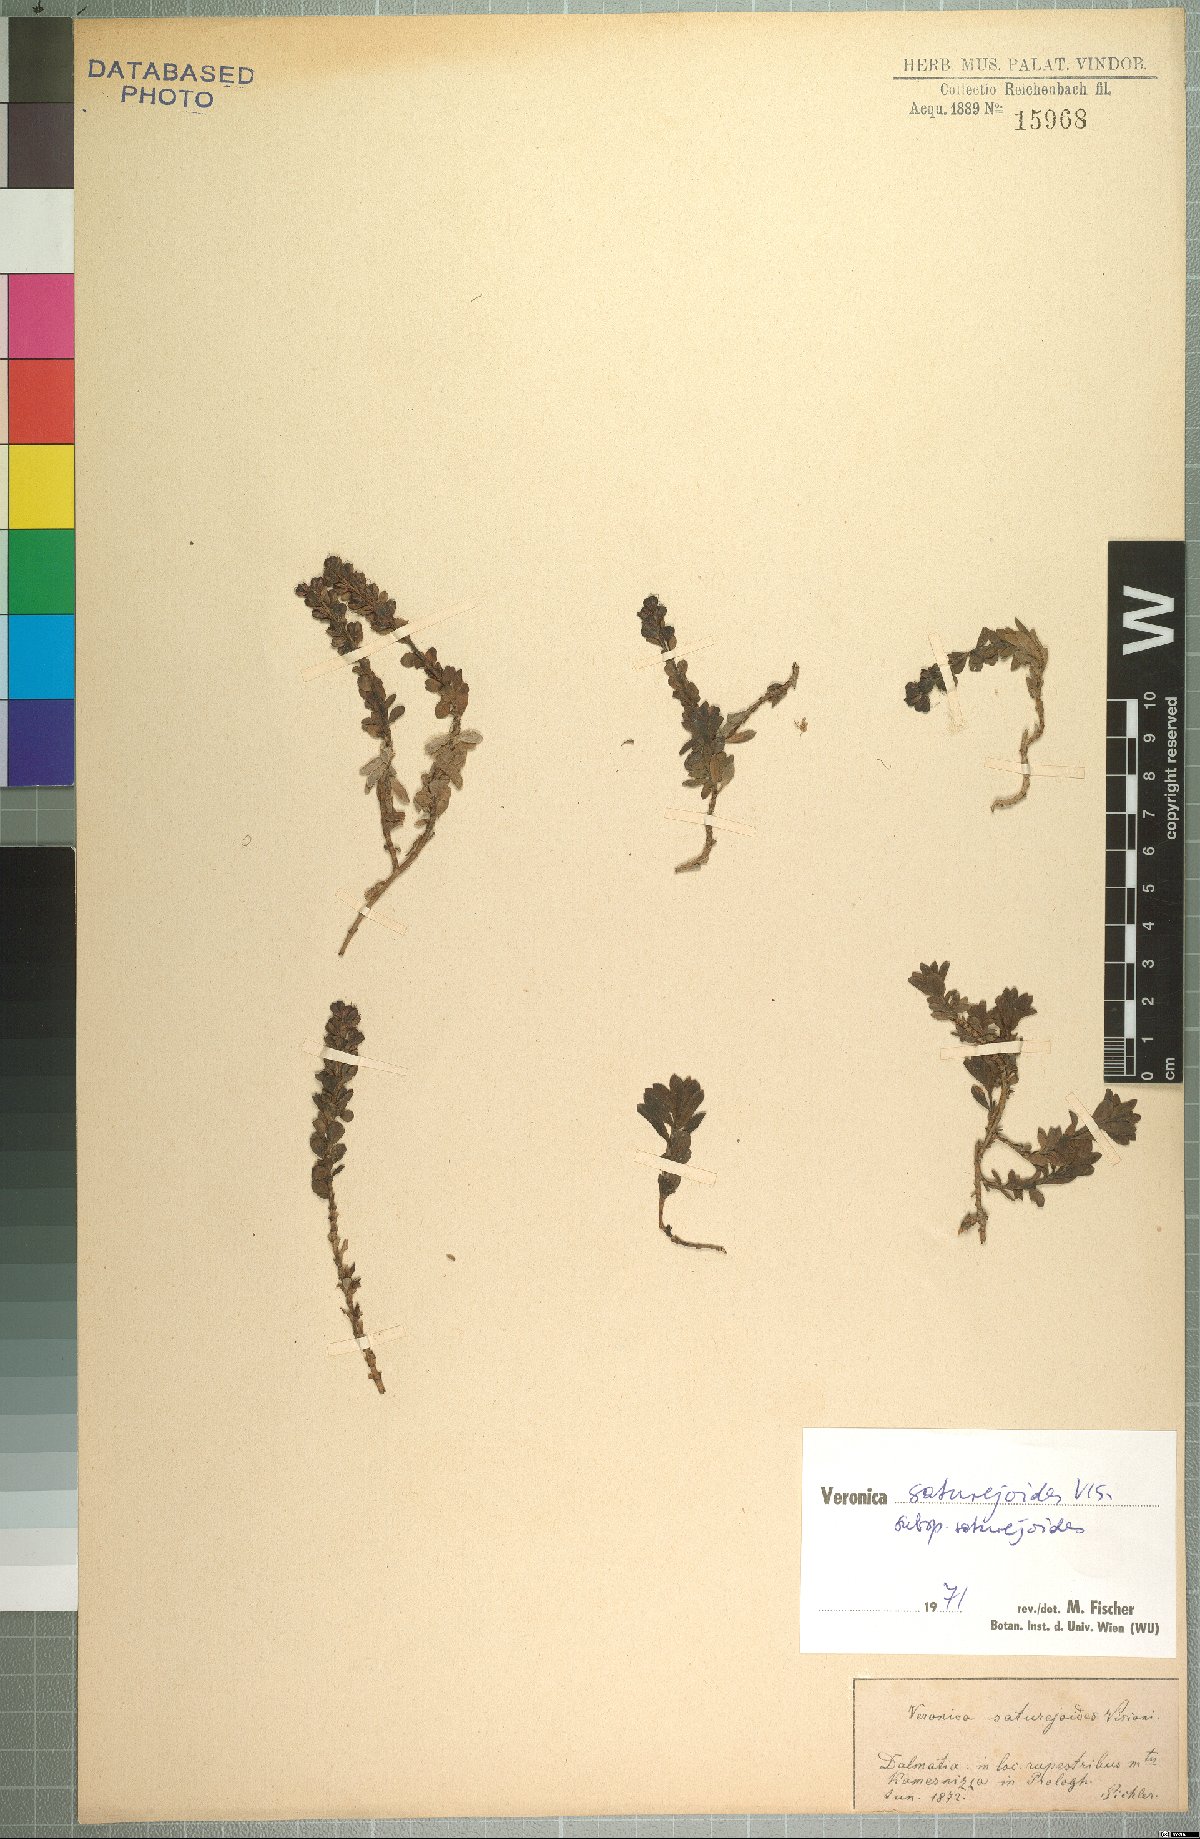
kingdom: Plantae
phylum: Tracheophyta
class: Magnoliopsida
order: Lamiales
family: Plantaginaceae
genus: Veronica
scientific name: Veronica saturejoides
